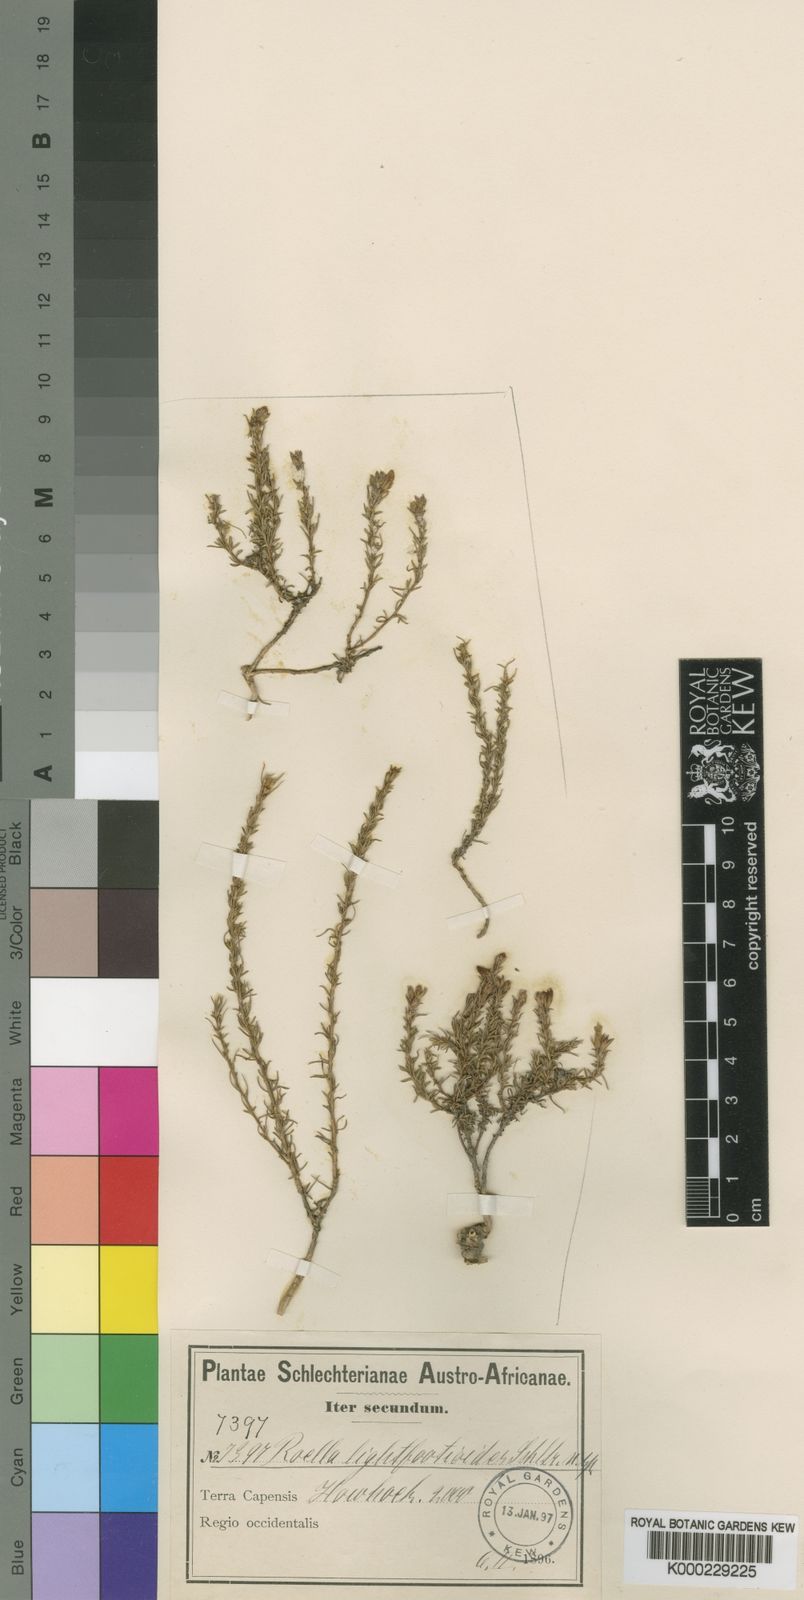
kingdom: Plantae
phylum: Tracheophyta
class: Magnoliopsida
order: Asterales
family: Campanulaceae
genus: Roella
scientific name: Roella spicata
